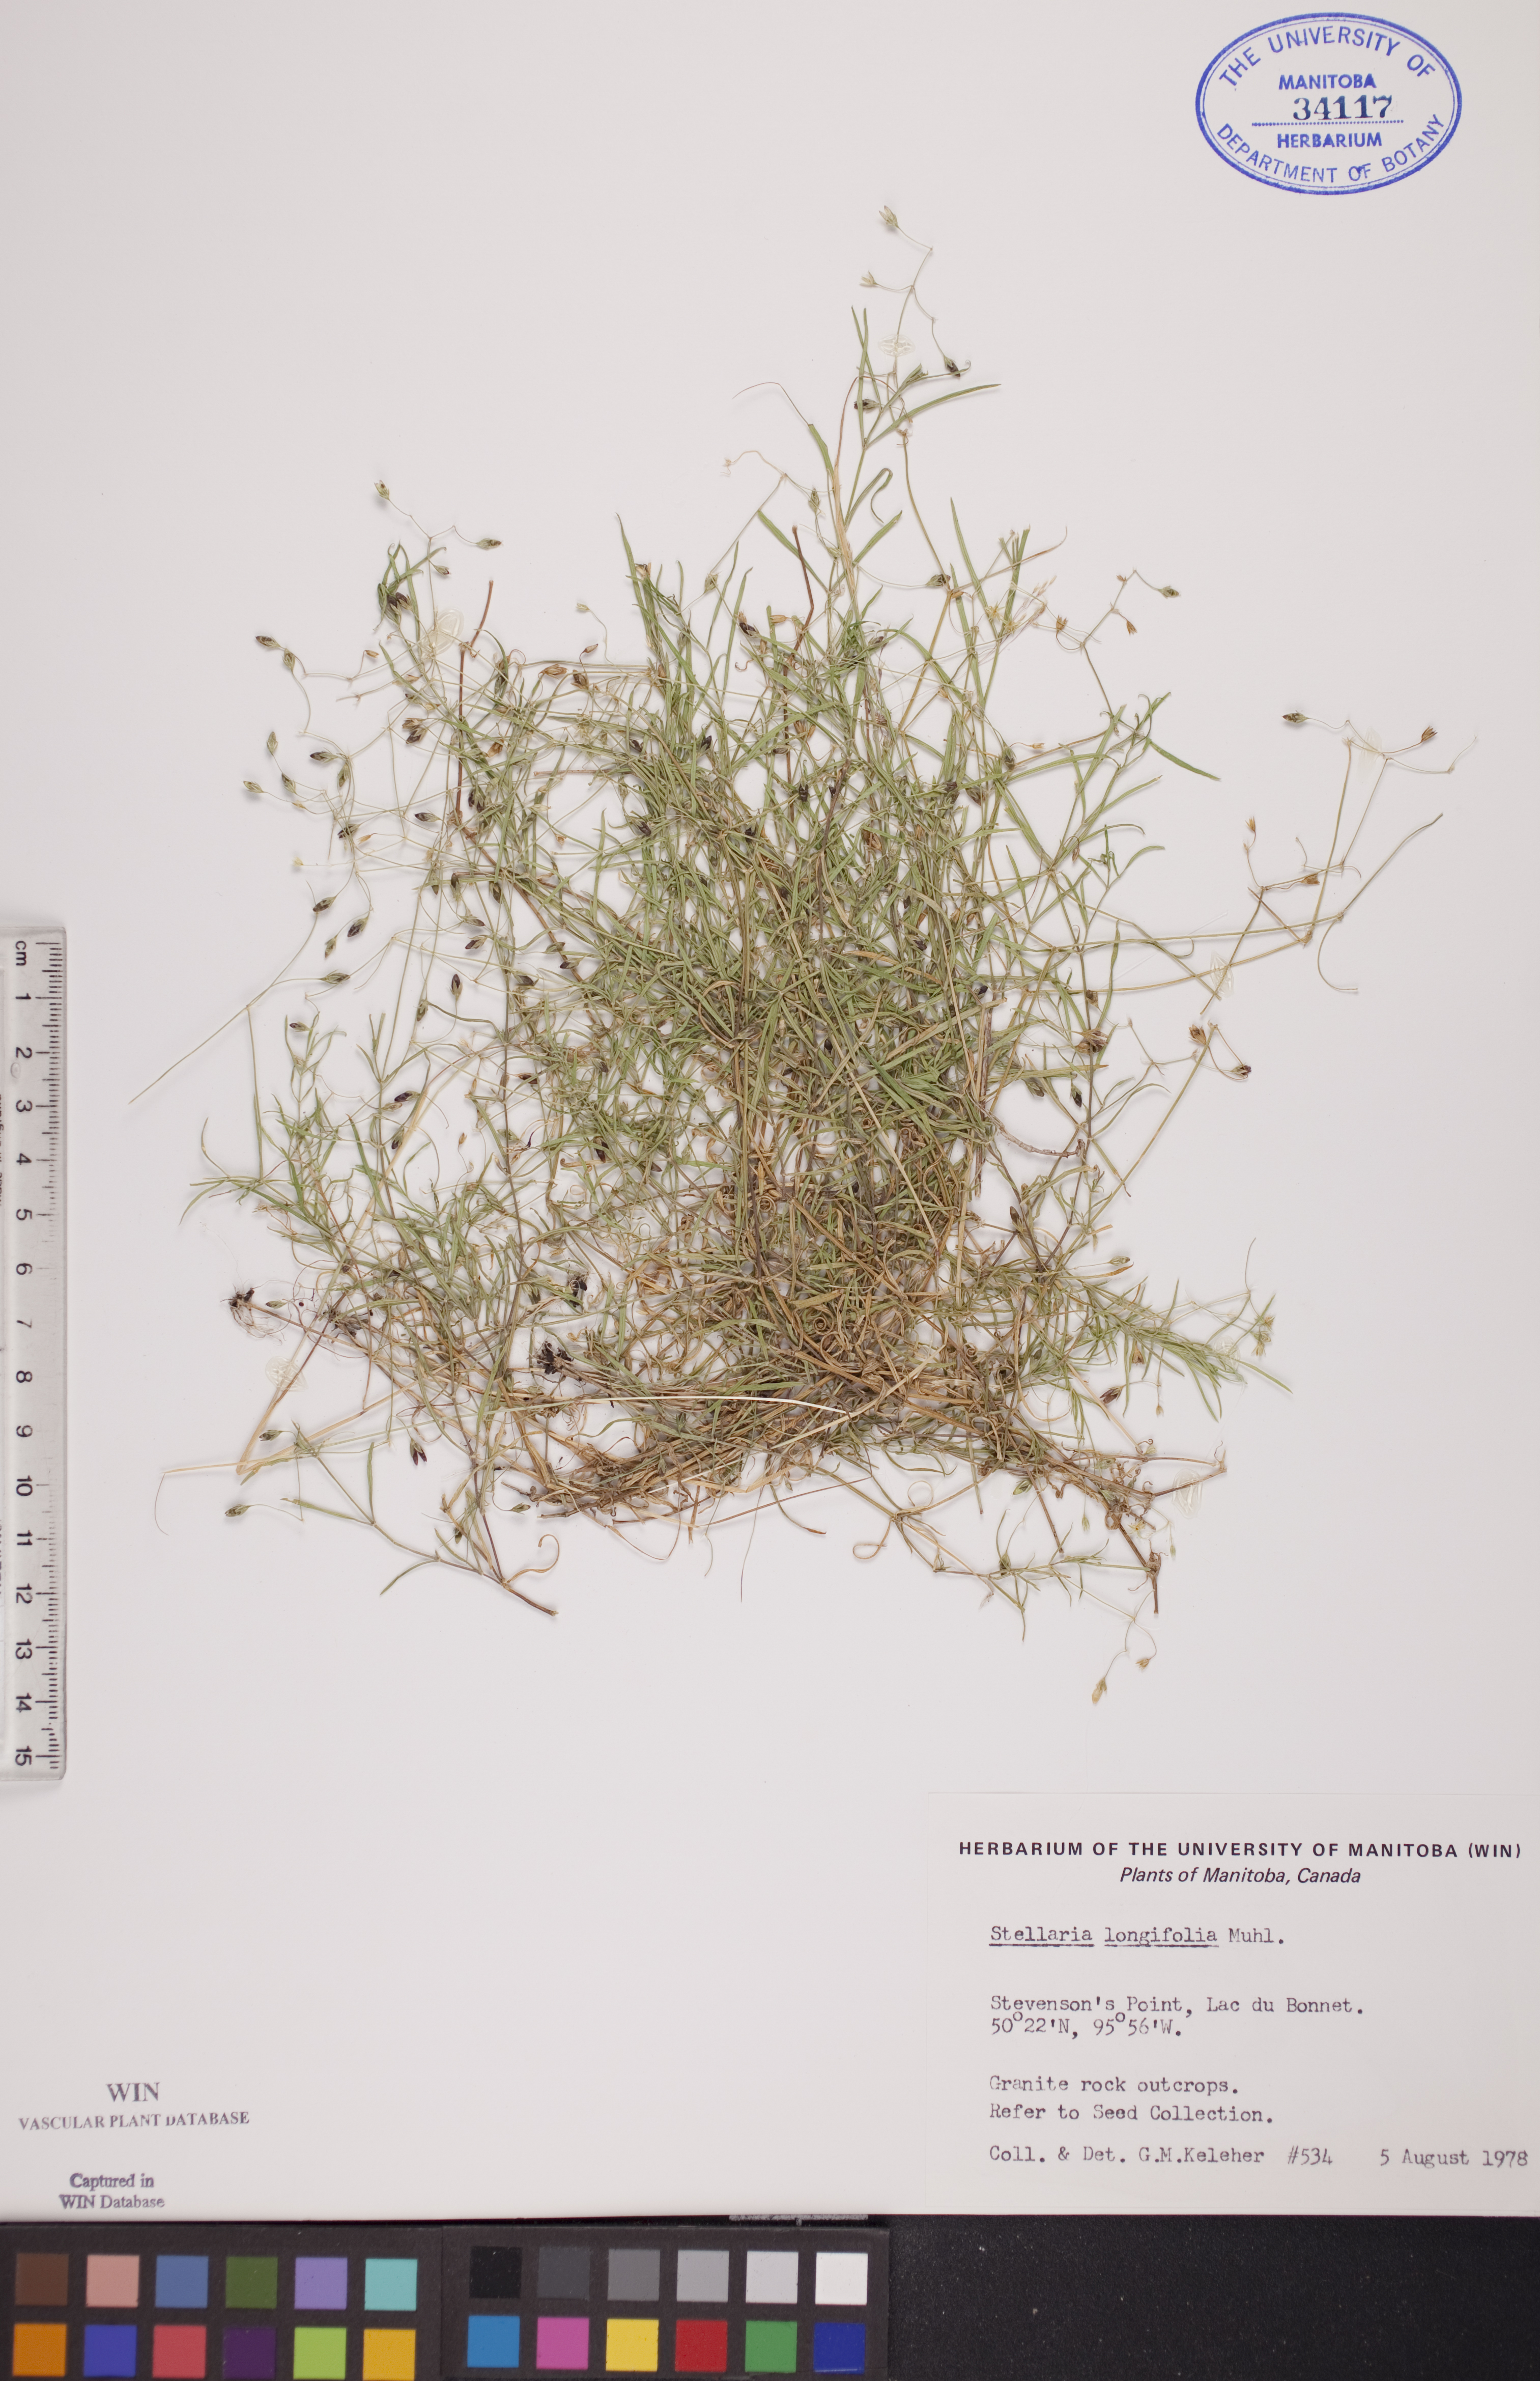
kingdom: Plantae
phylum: Tracheophyta
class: Magnoliopsida
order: Caryophyllales
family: Caryophyllaceae
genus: Stellaria
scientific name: Stellaria longifolia
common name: Long-leaved chickweed
